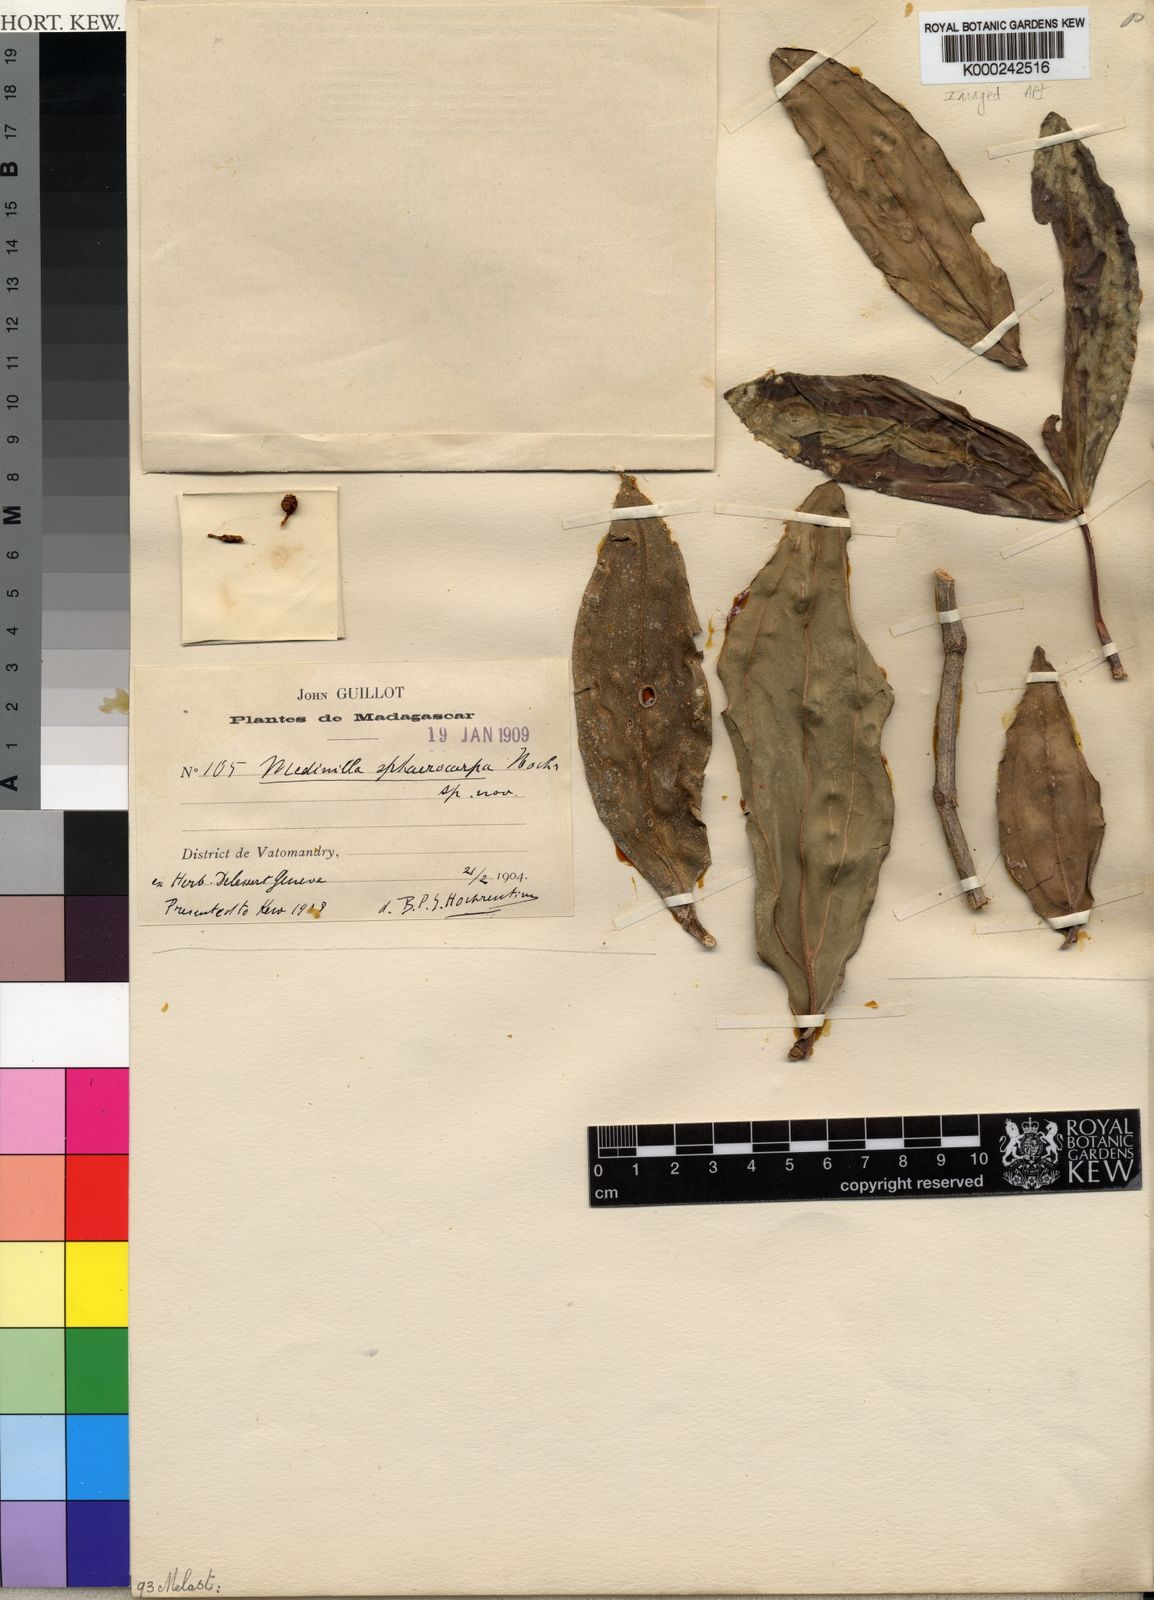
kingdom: Plantae
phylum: Tracheophyta
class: Magnoliopsida
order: Myrtales
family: Melastomataceae
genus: Medinilla
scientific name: Medinilla sphaerocarpa
